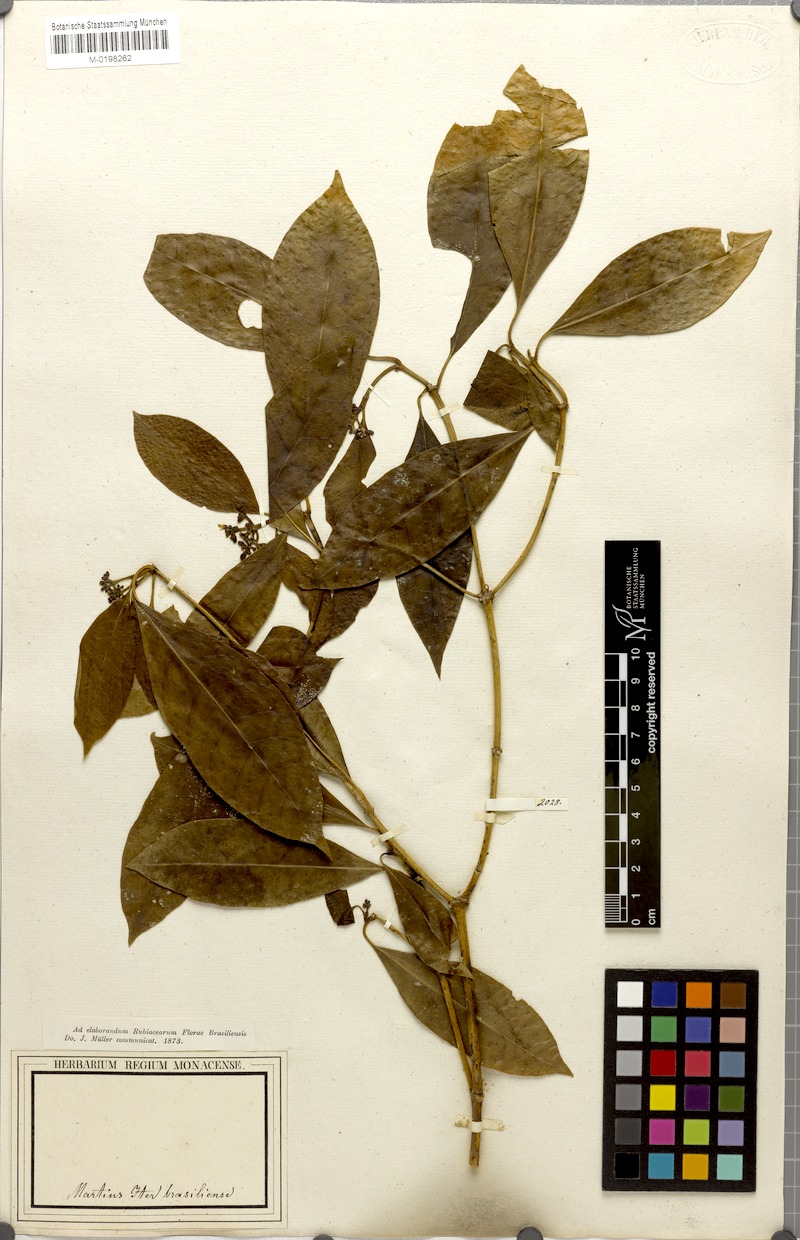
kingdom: Plantae
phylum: Tracheophyta
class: Magnoliopsida
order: Gentianales
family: Rubiaceae
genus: Psychotria
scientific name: Psychotria Mapouria laevifolia
